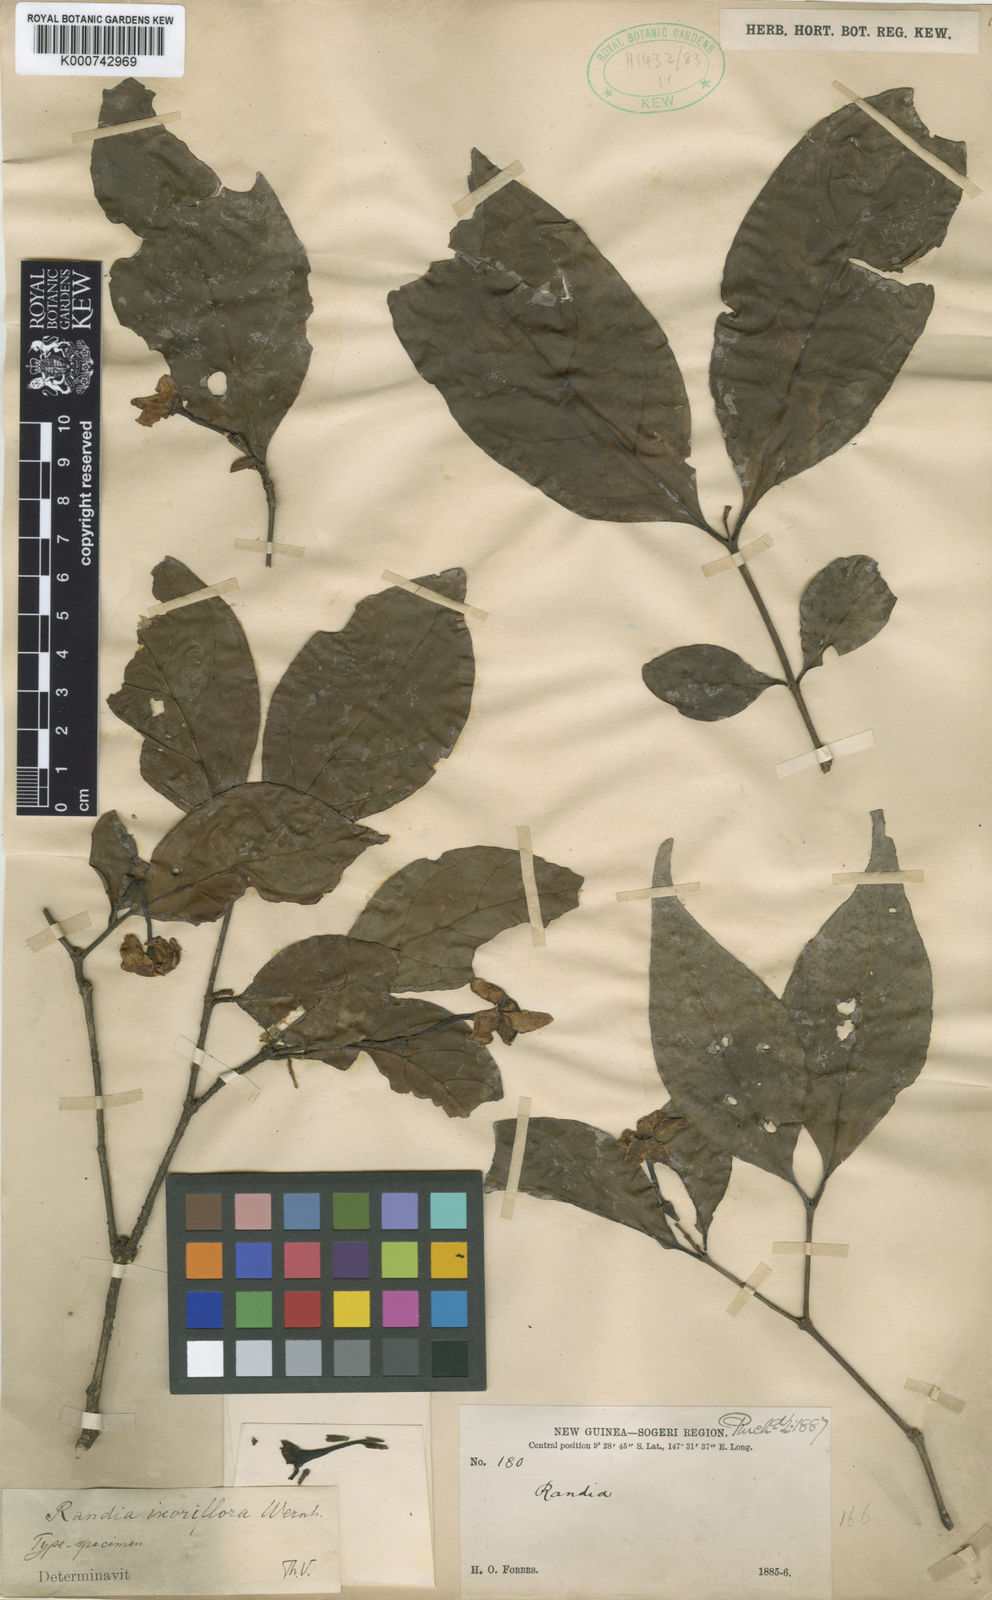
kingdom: Plantae
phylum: Tracheophyta
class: Magnoliopsida
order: Gentianales
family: Rubiaceae
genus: Randia
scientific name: Randia ixoriflora
